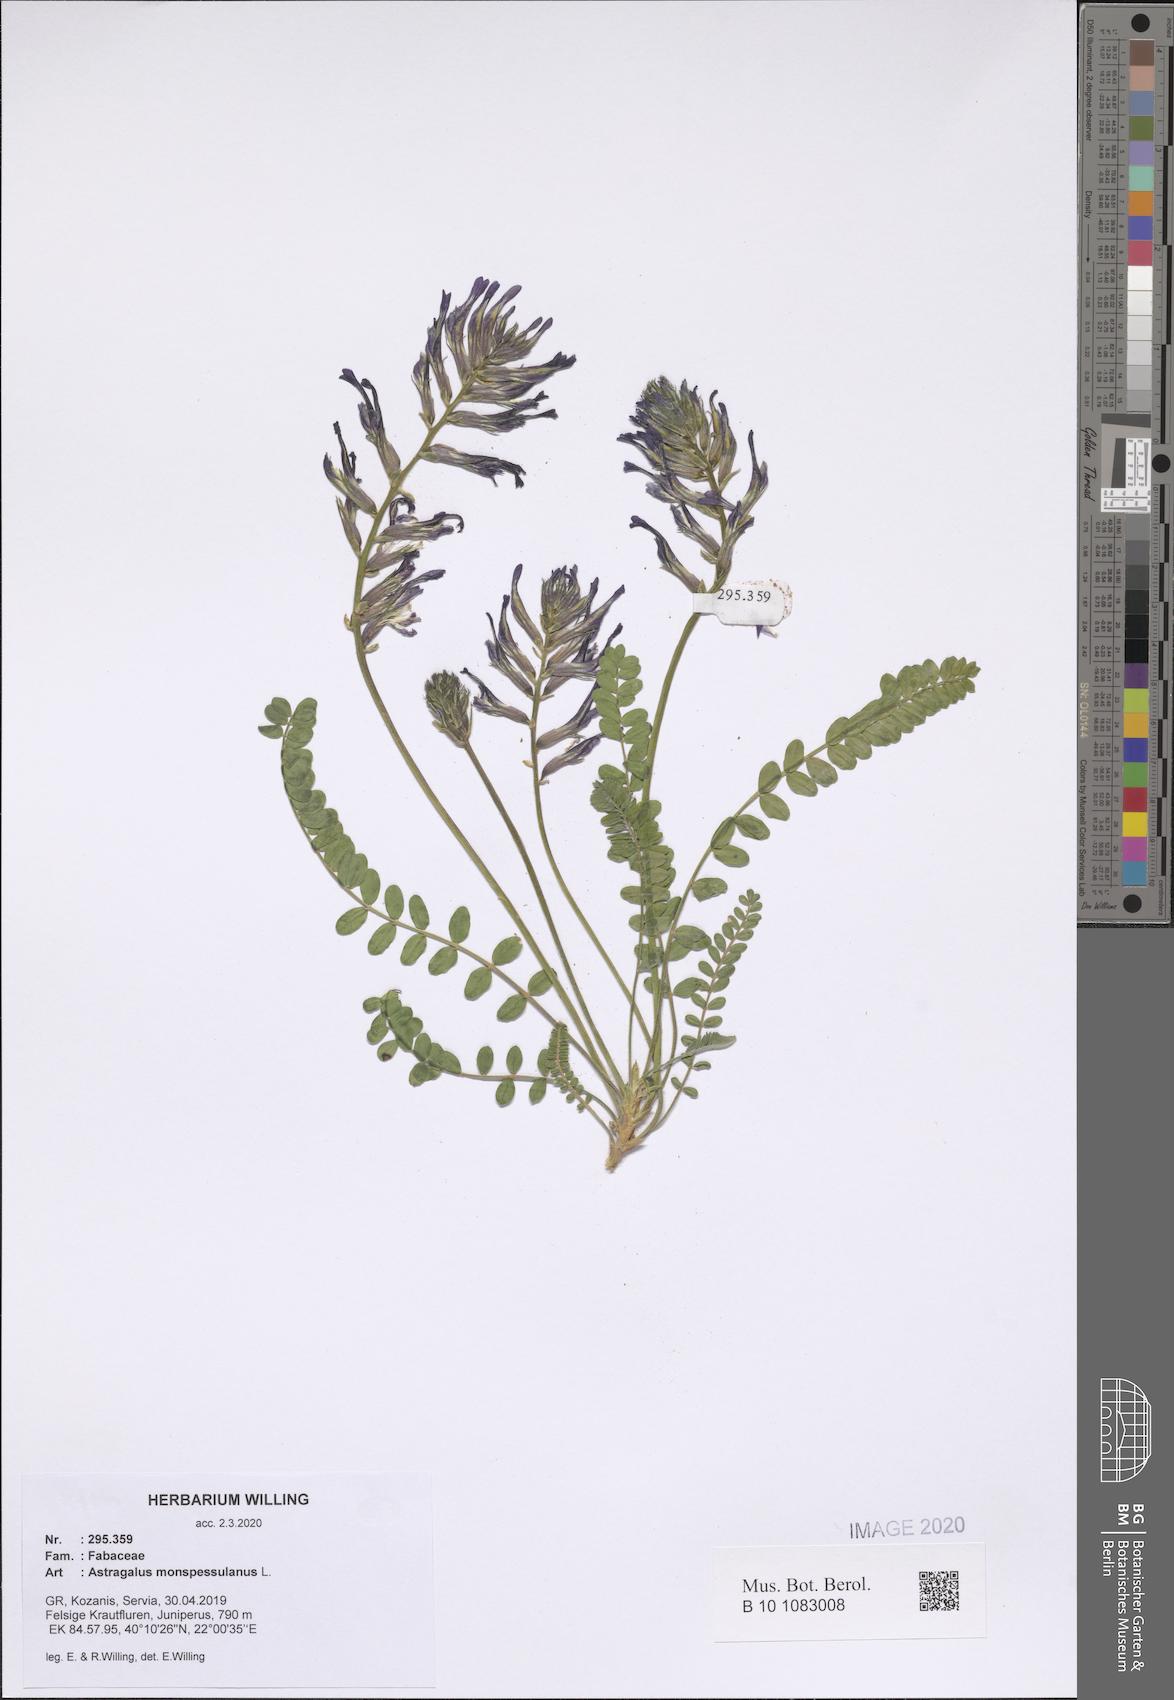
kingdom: Plantae
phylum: Tracheophyta
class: Magnoliopsida
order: Fabales
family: Fabaceae
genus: Astragalus
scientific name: Astragalus monspessulanus
